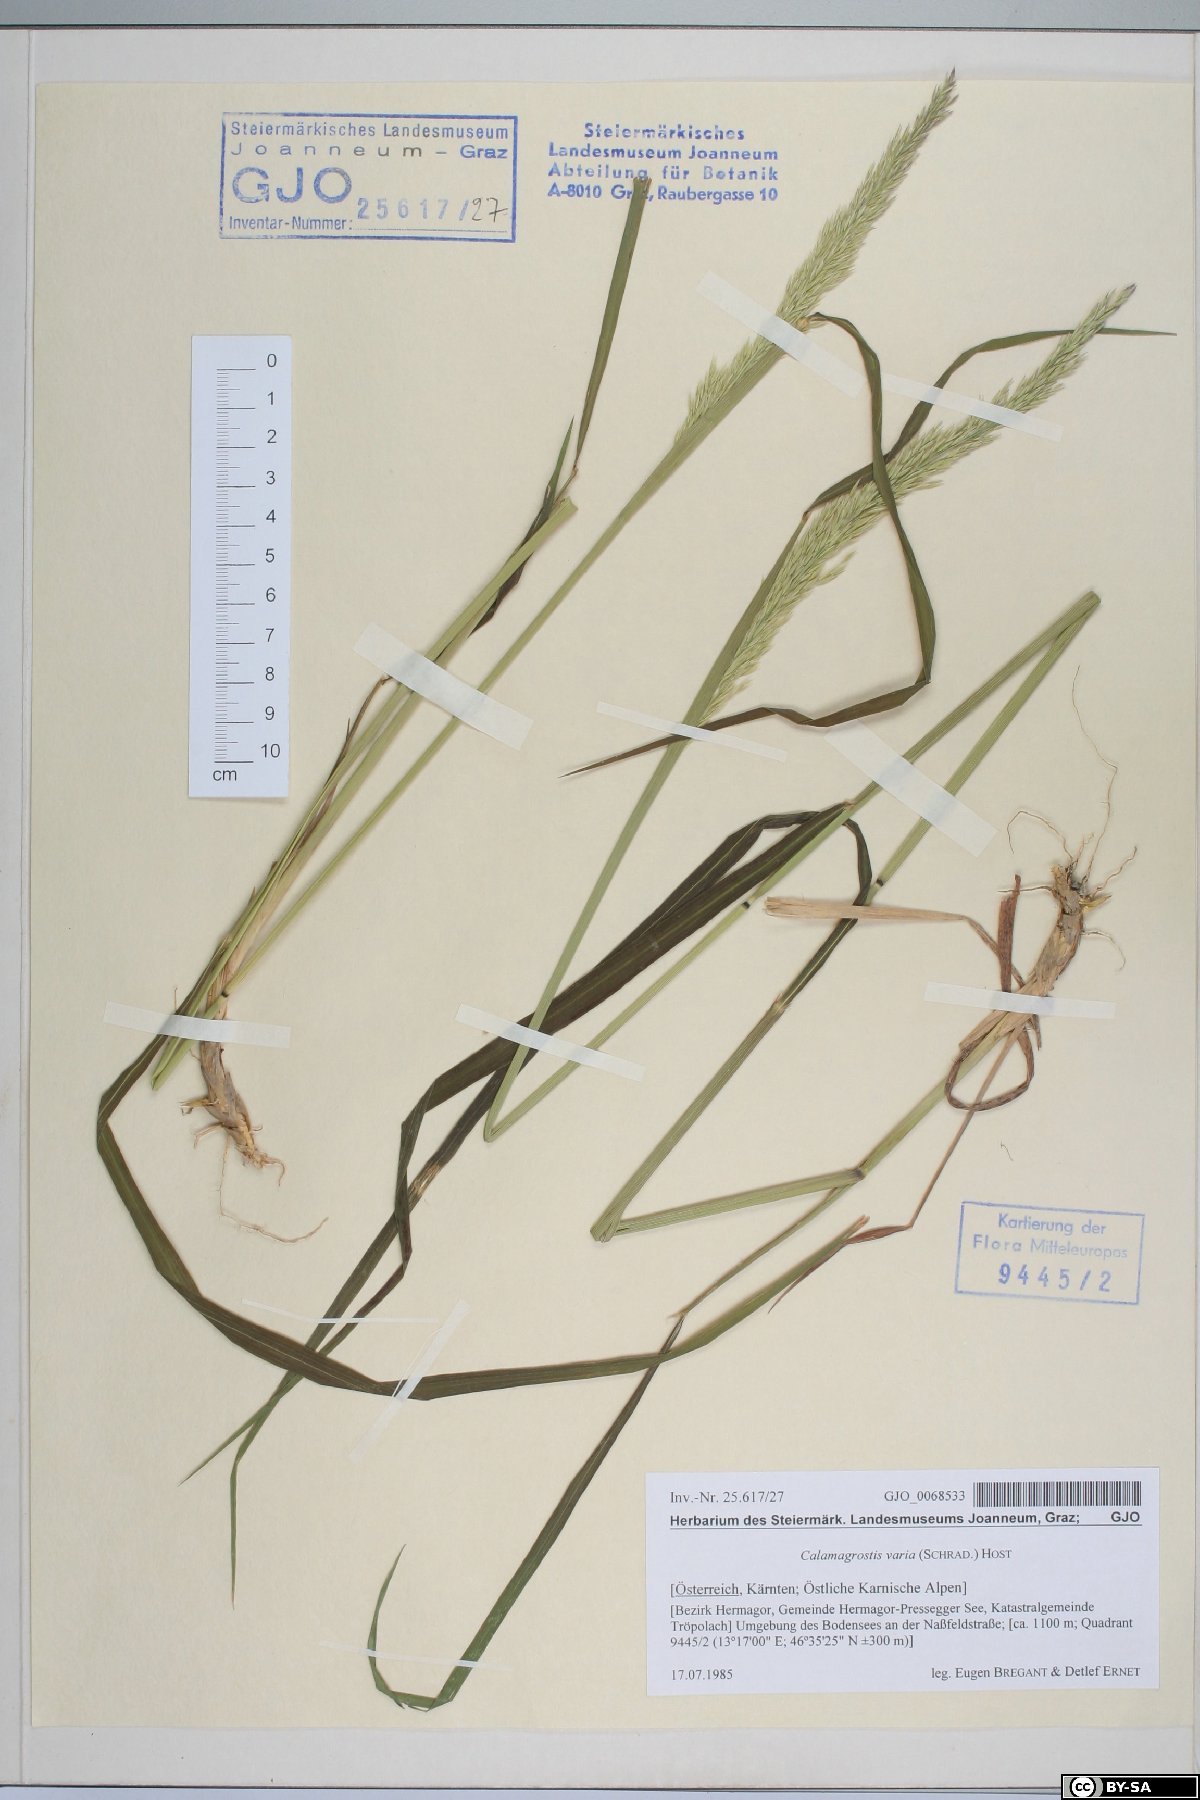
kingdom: Plantae
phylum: Tracheophyta
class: Liliopsida
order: Poales
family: Poaceae
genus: Calamagrostis
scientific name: Calamagrostis varia
